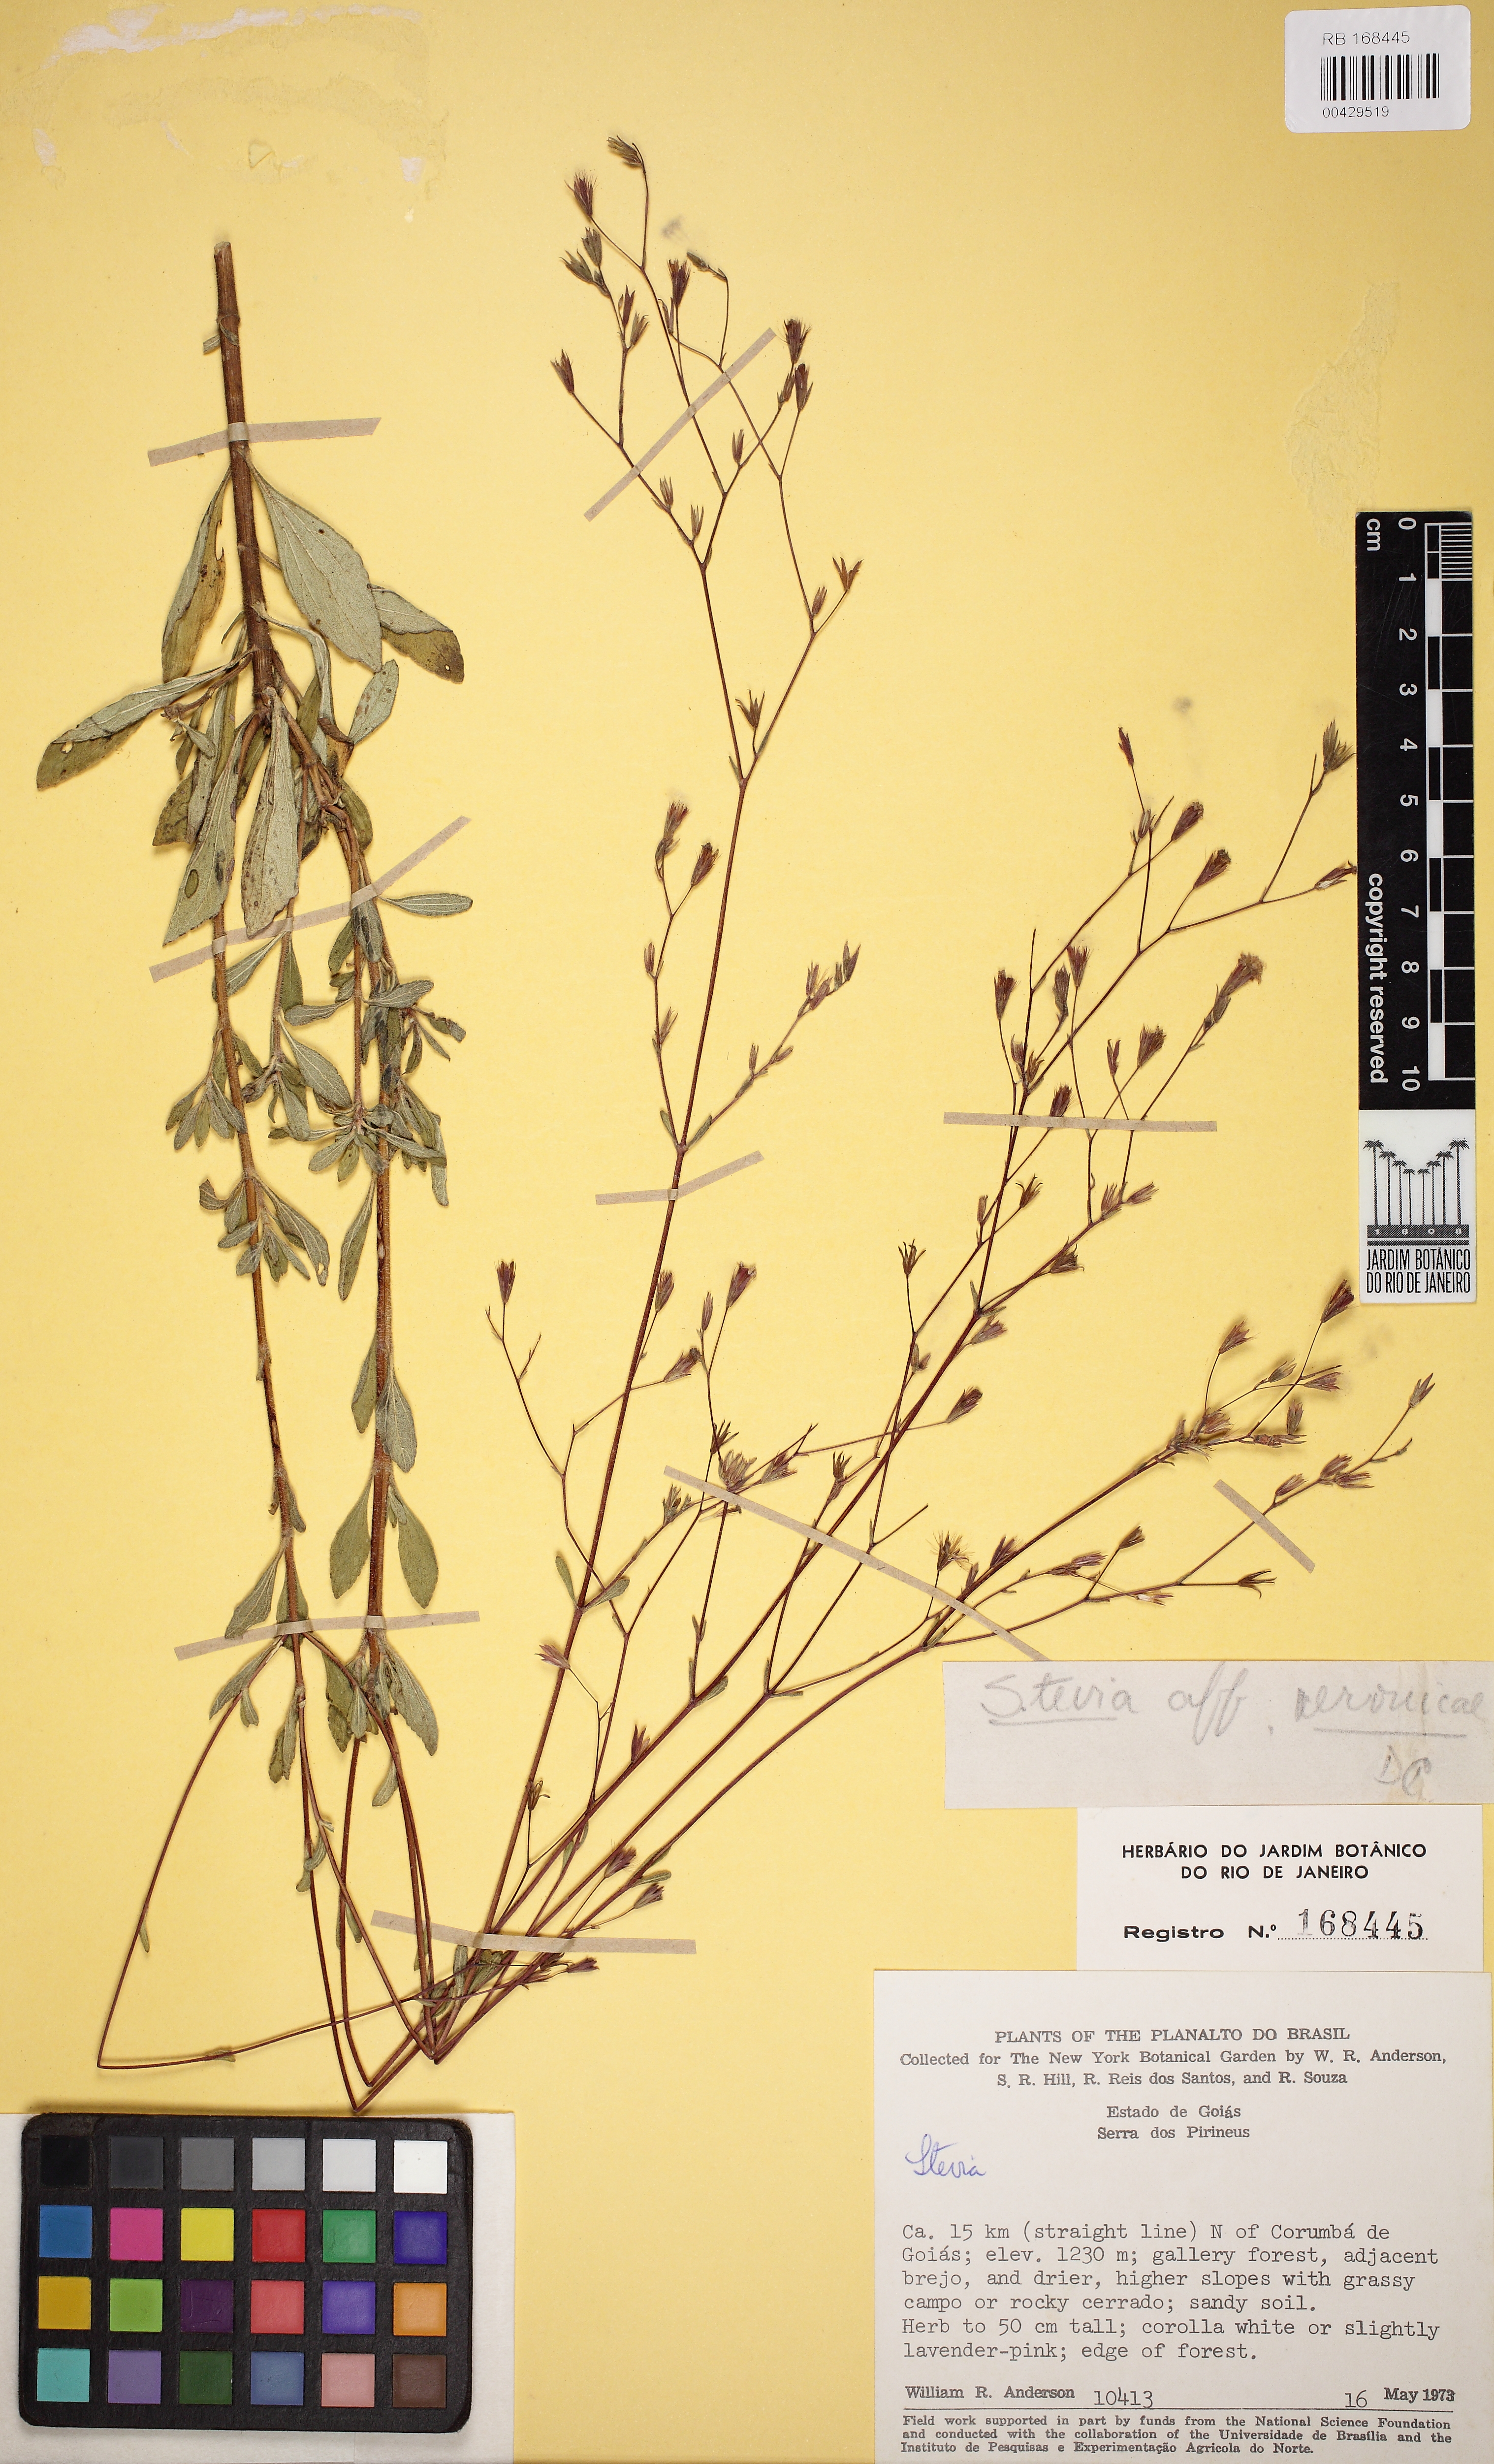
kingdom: Plantae
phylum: Tracheophyta
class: Magnoliopsida
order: Asterales
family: Asteraceae
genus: Stevia
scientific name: Stevia crenulata
